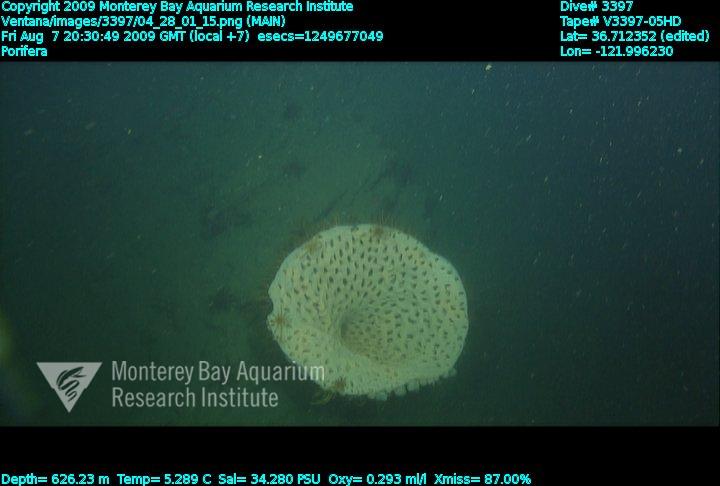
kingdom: Animalia
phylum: Porifera
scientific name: Porifera
